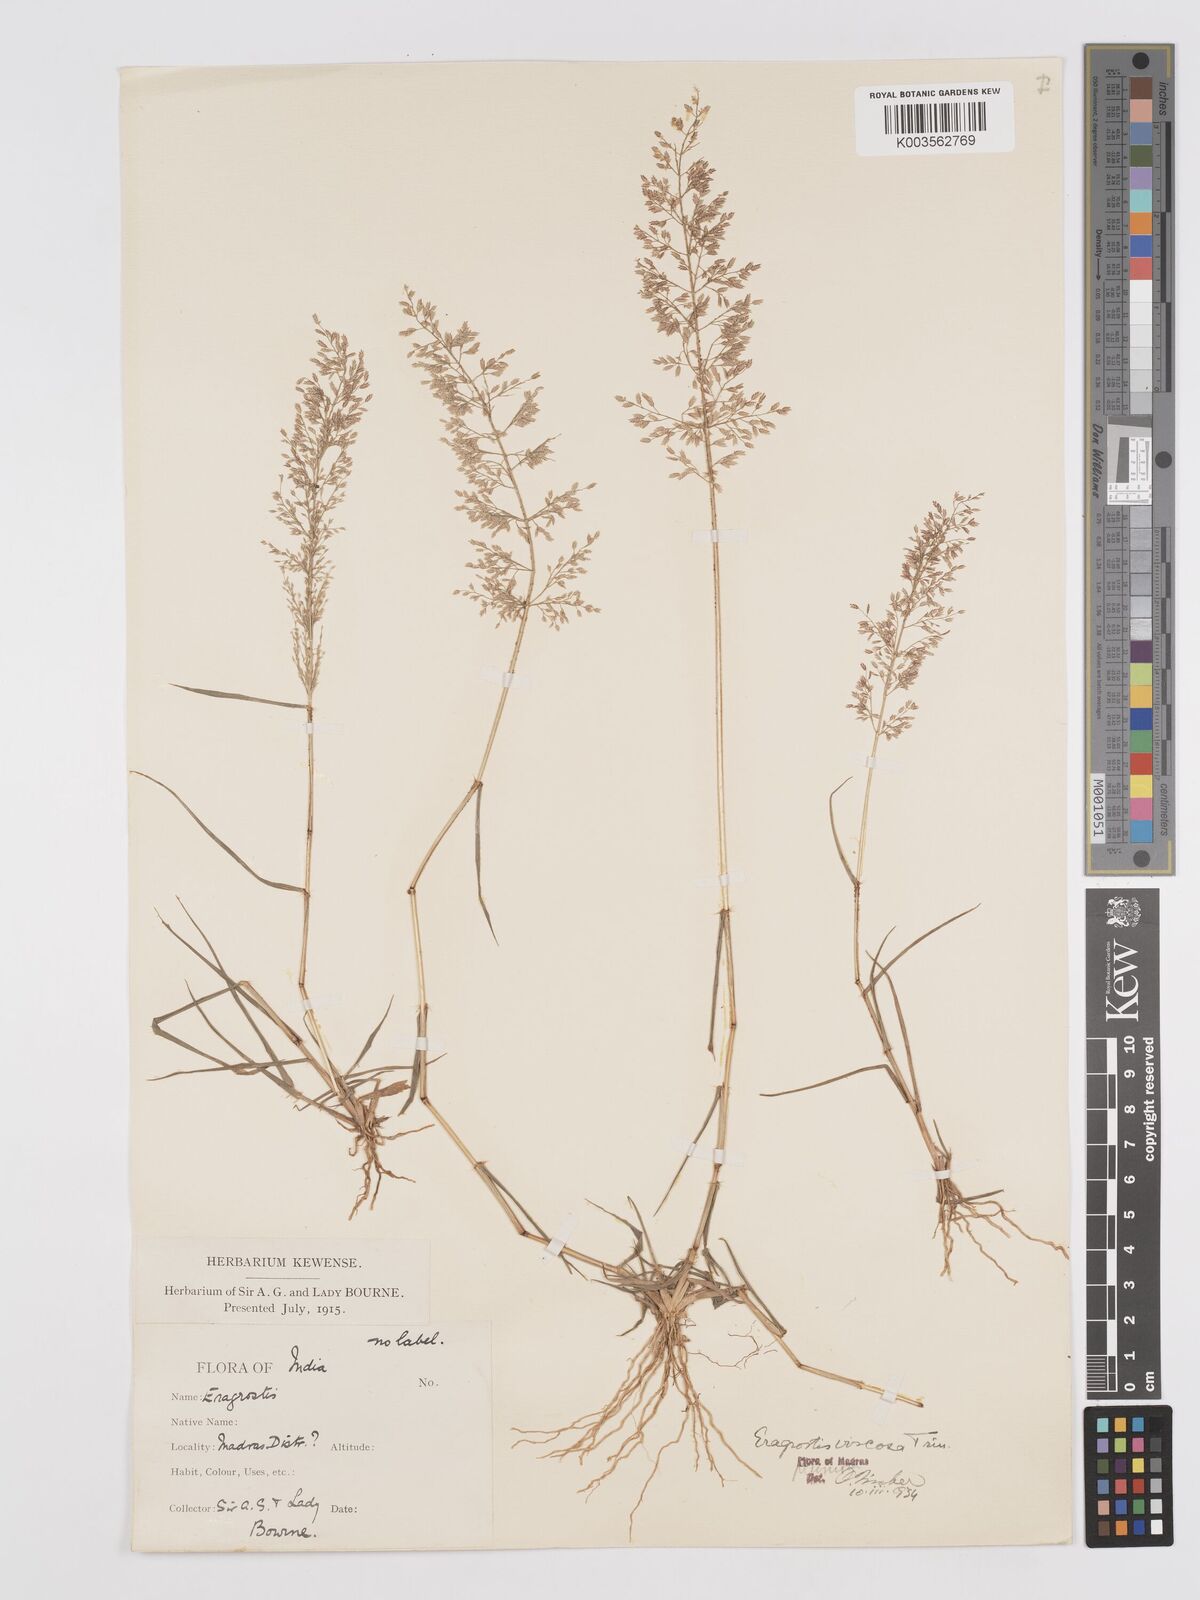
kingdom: Plantae
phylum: Tracheophyta
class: Liliopsida
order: Poales
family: Poaceae
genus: Eragrostis
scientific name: Eragrostis viscosa
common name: Sticky love grass
